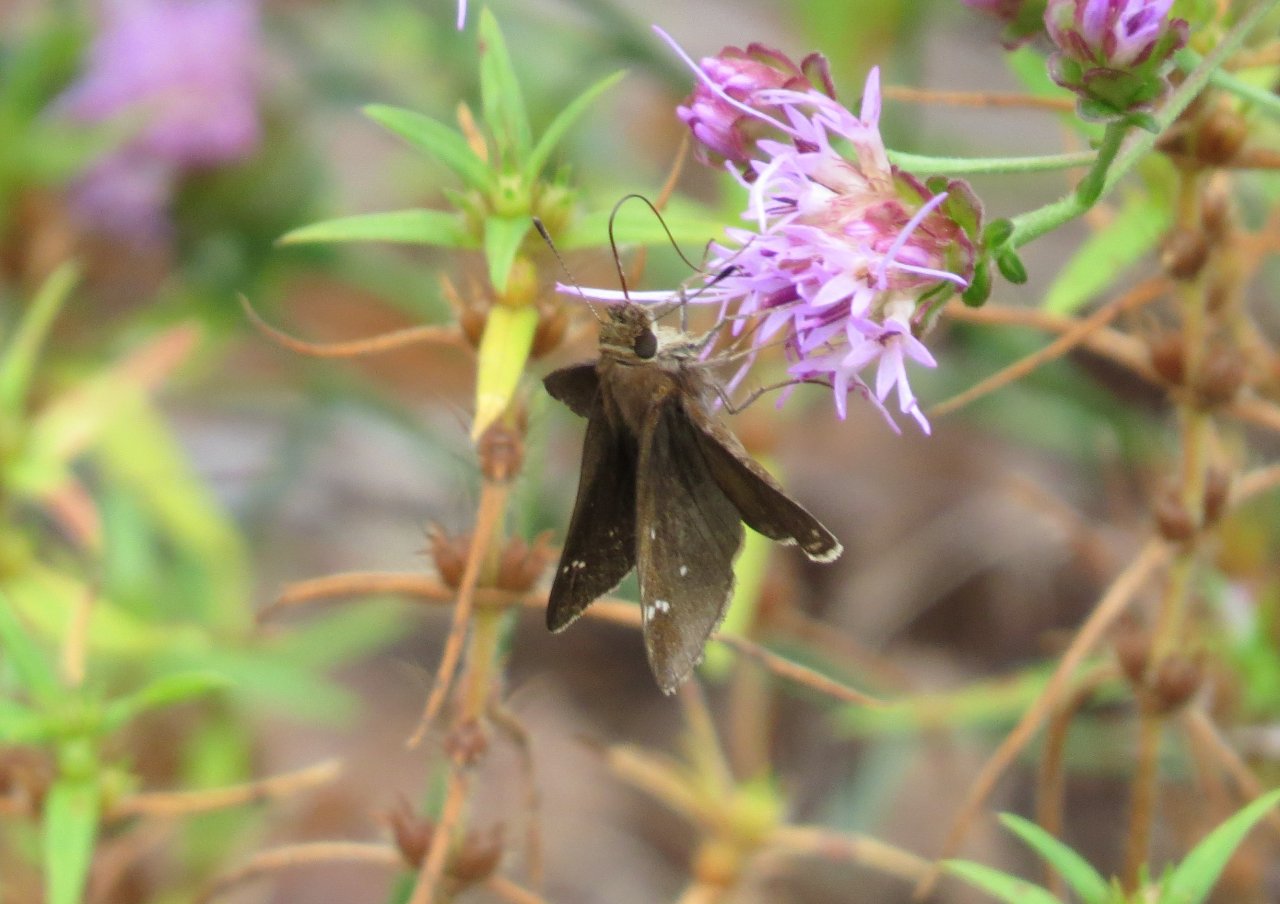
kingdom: Animalia
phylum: Arthropoda
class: Insecta
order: Lepidoptera
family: Hesperiidae
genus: Lerema
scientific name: Lerema accius
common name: Clouded Skipper
